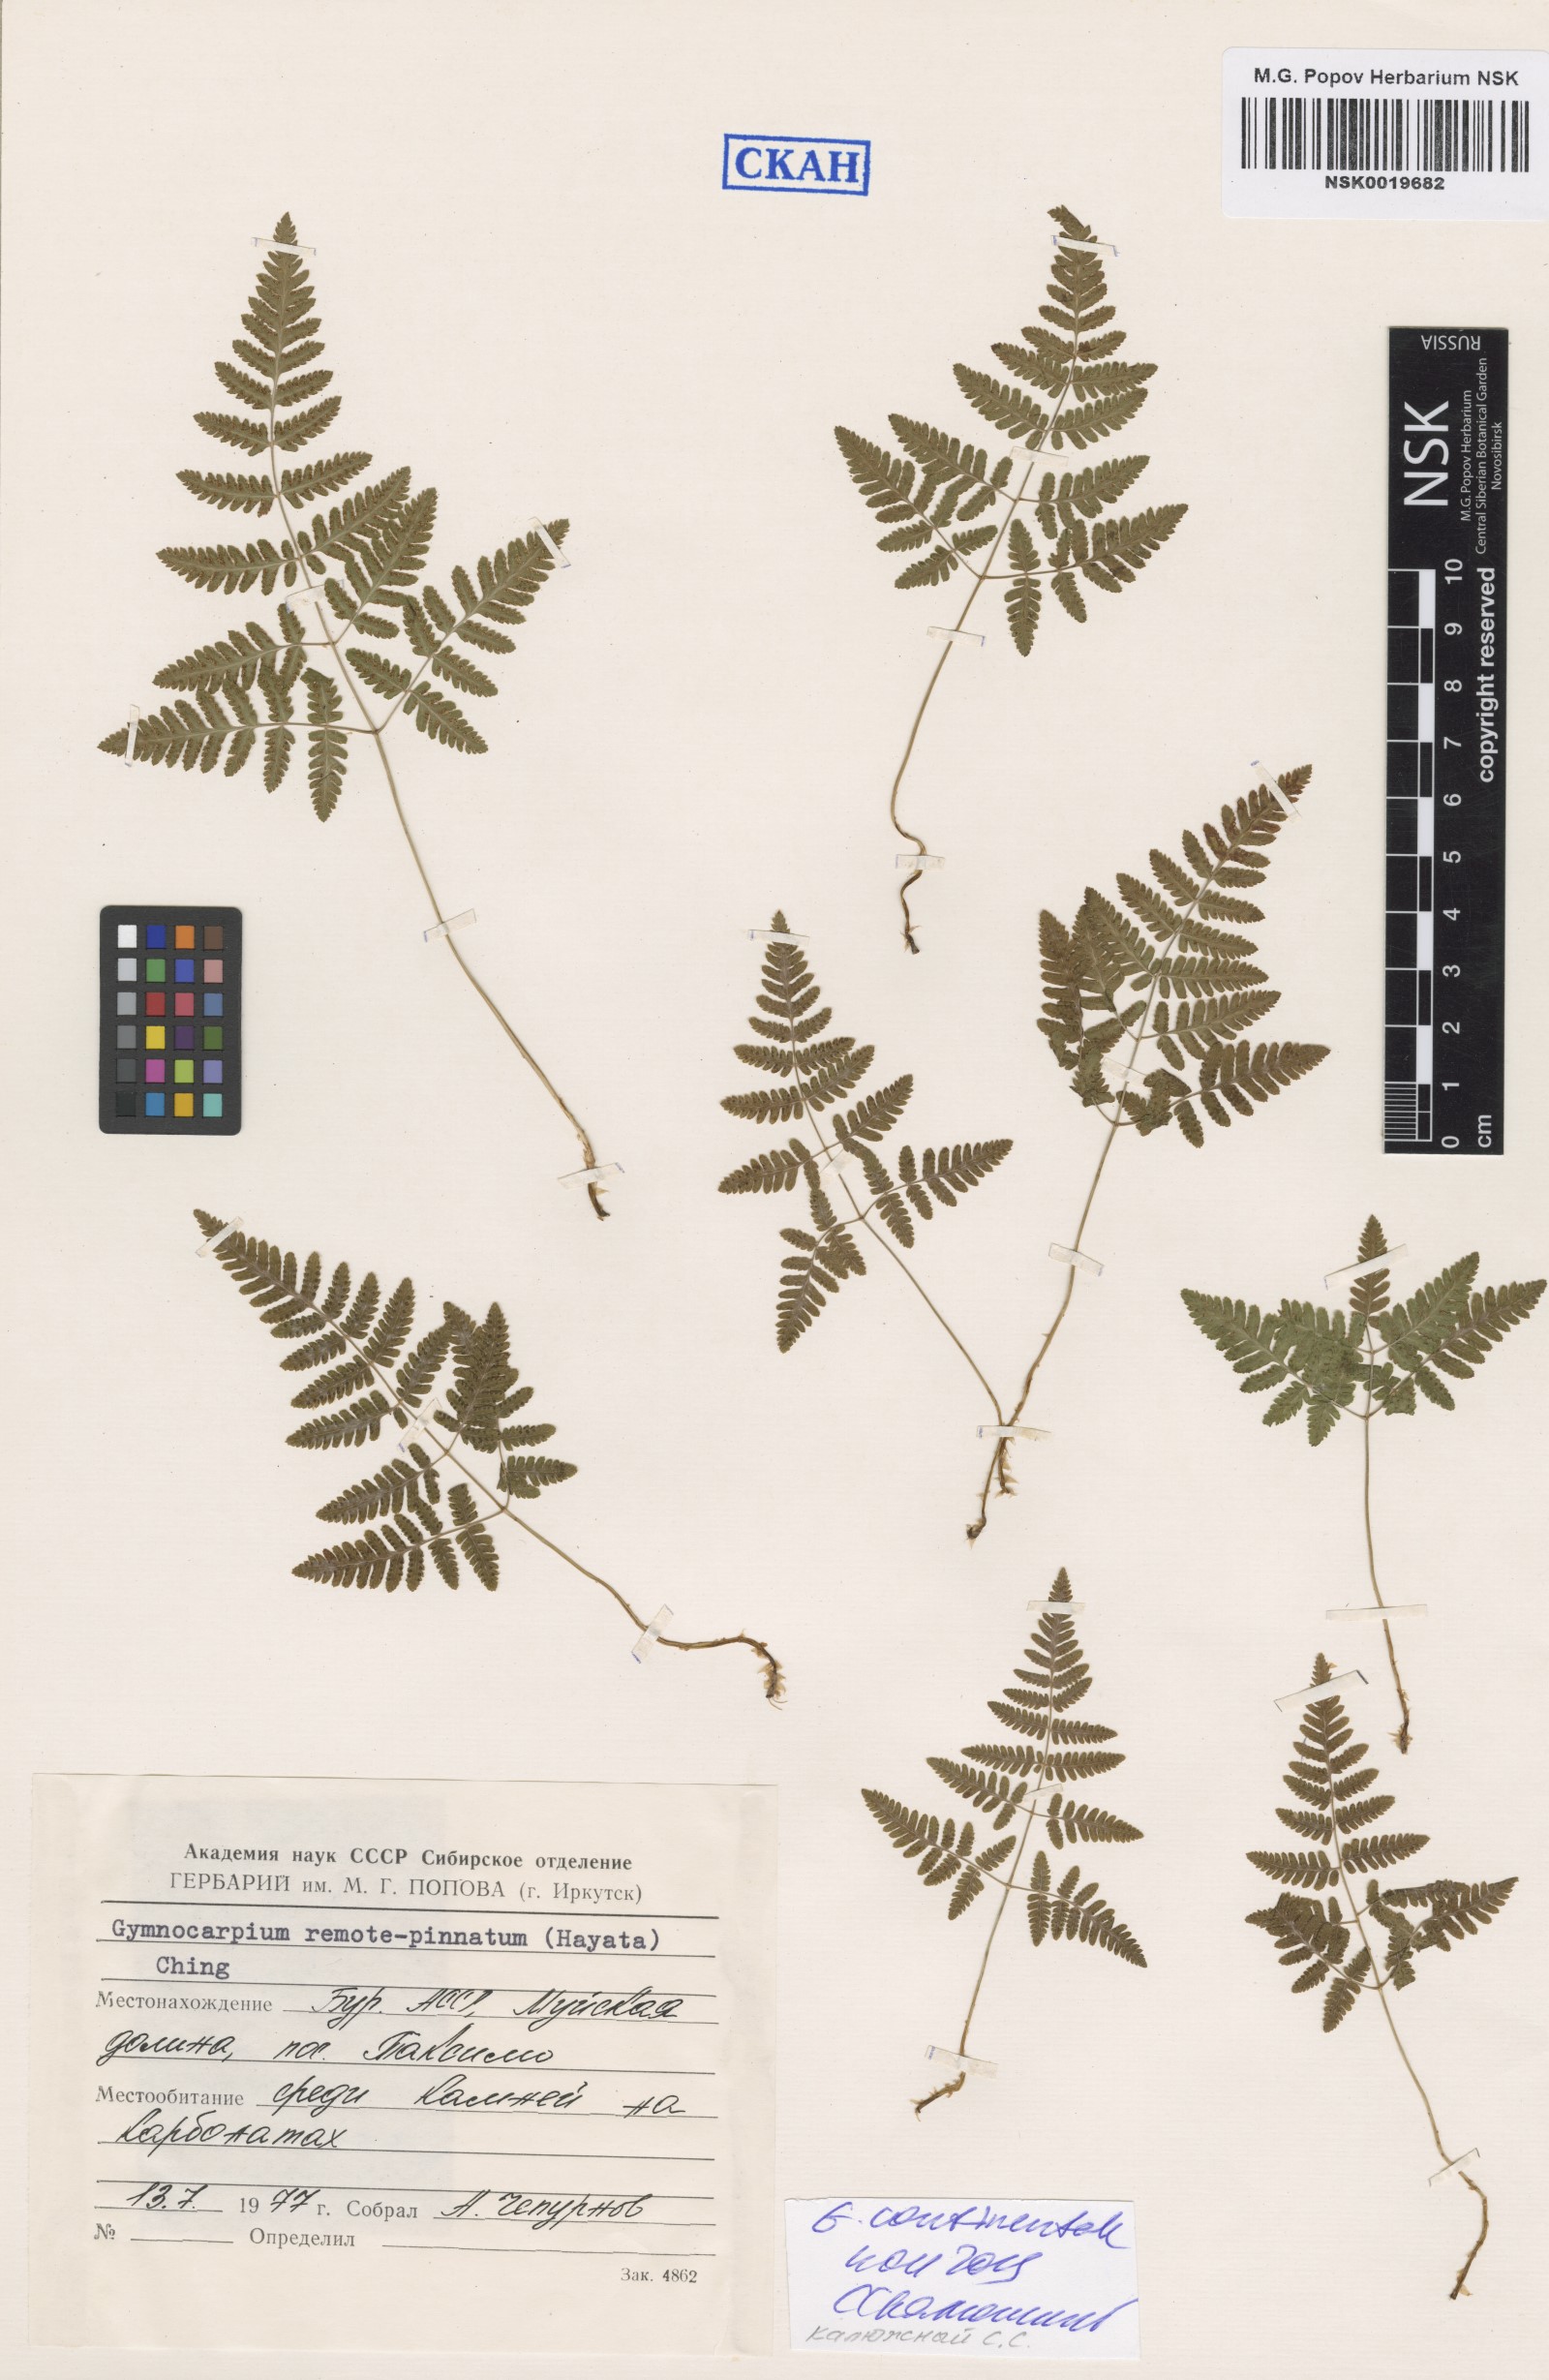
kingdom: Plantae
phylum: Tracheophyta
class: Polypodiopsida
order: Polypodiales
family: Cystopteridaceae
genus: Gymnocarpium
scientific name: Gymnocarpium continentale
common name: Asian oak fern
